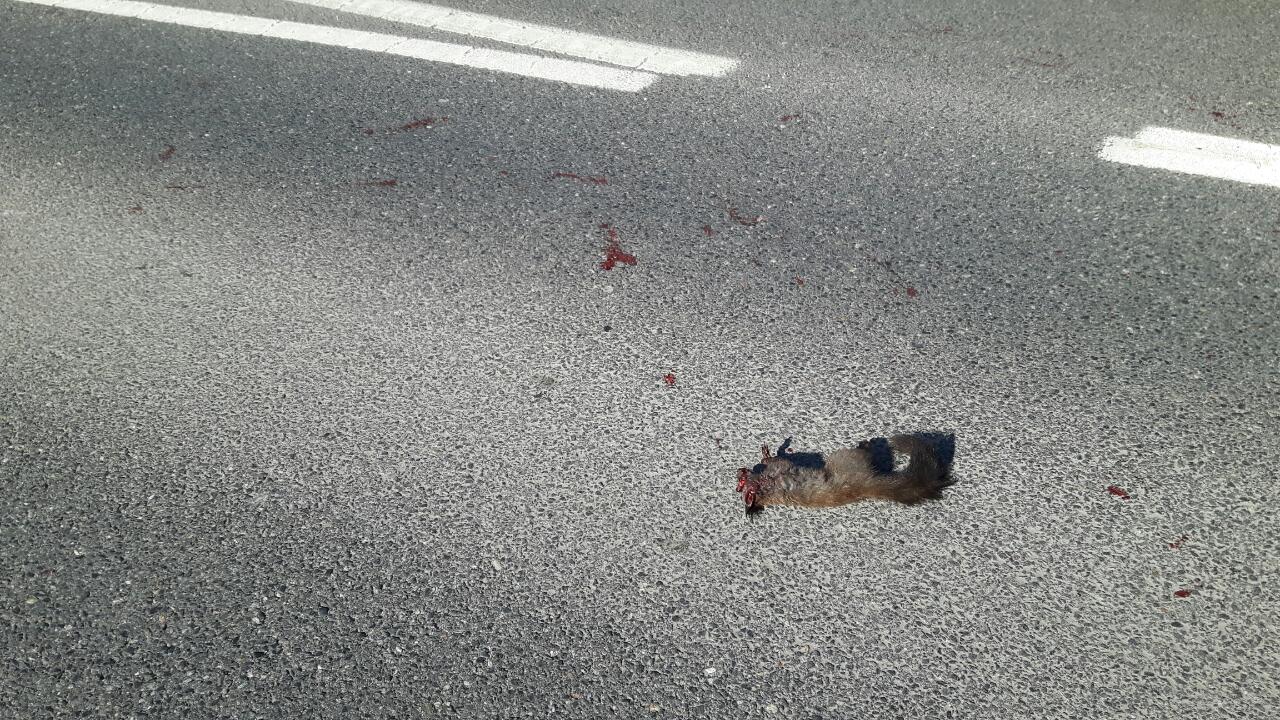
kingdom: Animalia
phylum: Chordata
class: Mammalia
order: Rodentia
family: Sciuridae
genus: Sciurus
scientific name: Sciurus vulgaris
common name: Eurasian red squirrel
